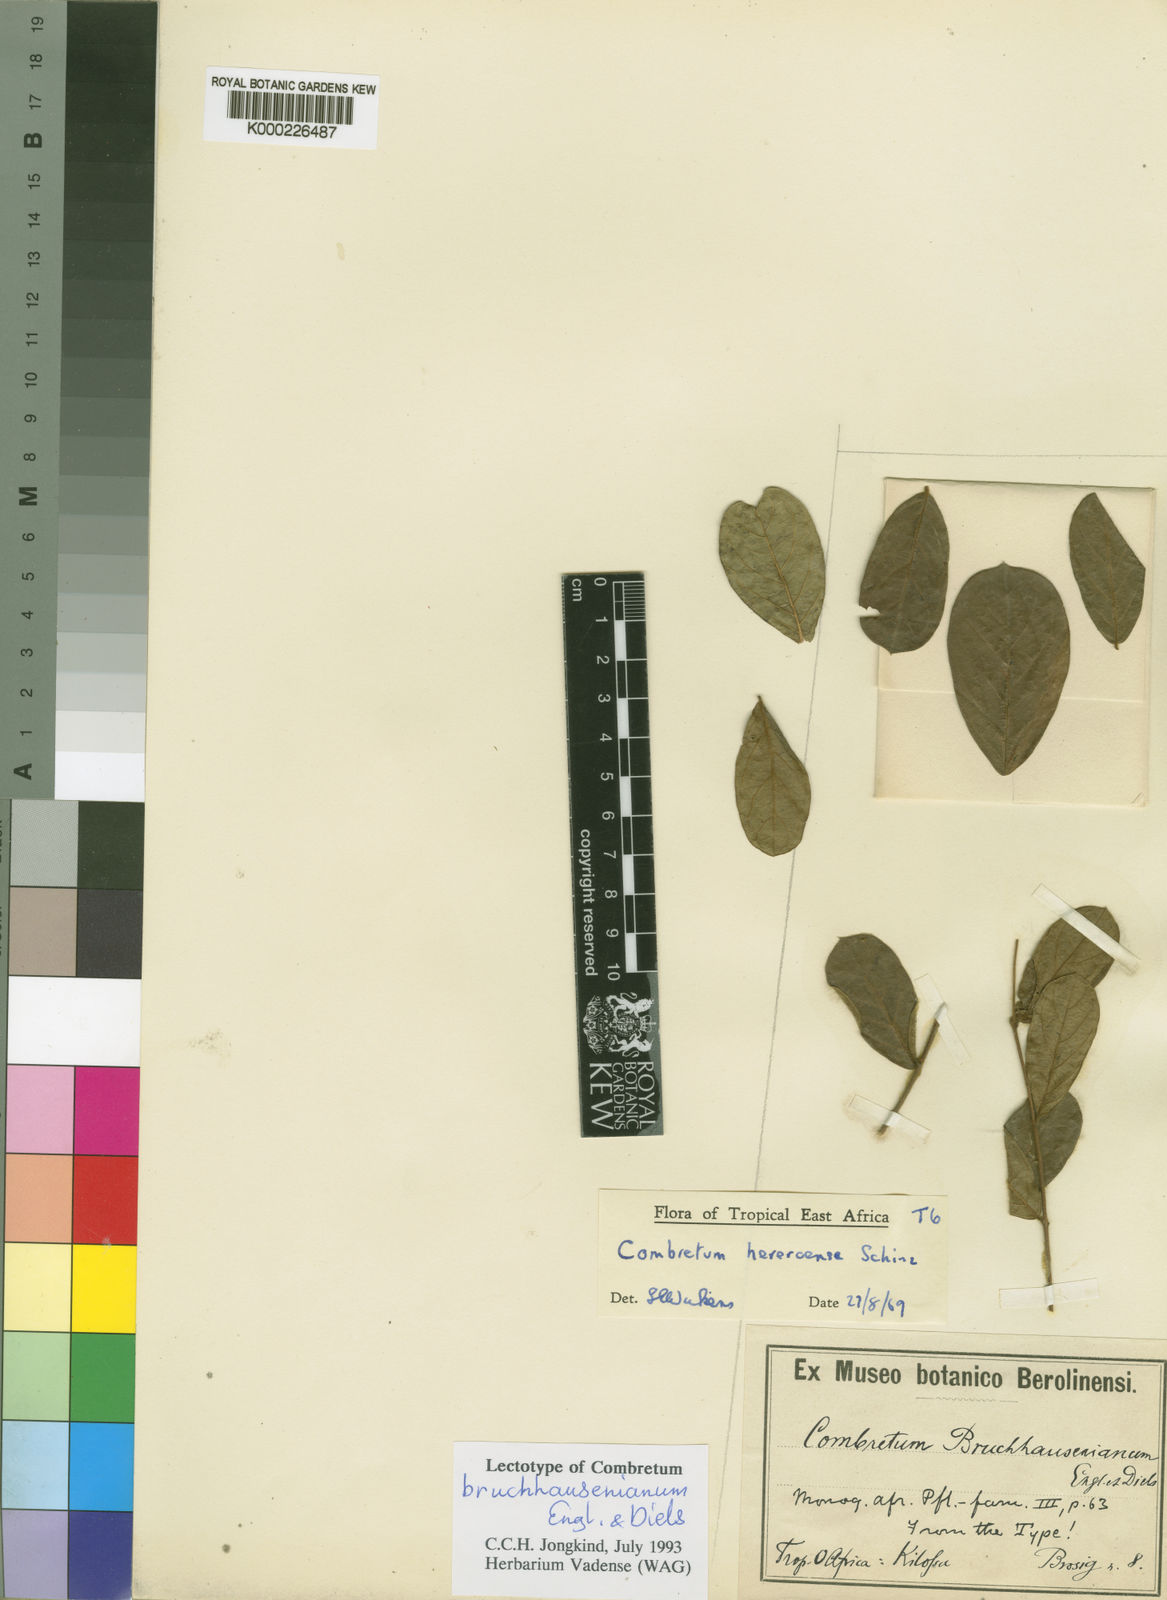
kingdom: Plantae
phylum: Tracheophyta
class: Magnoliopsida
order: Myrtales
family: Combretaceae
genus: Combretum
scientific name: Combretum hereroense
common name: Russet bushwillow
